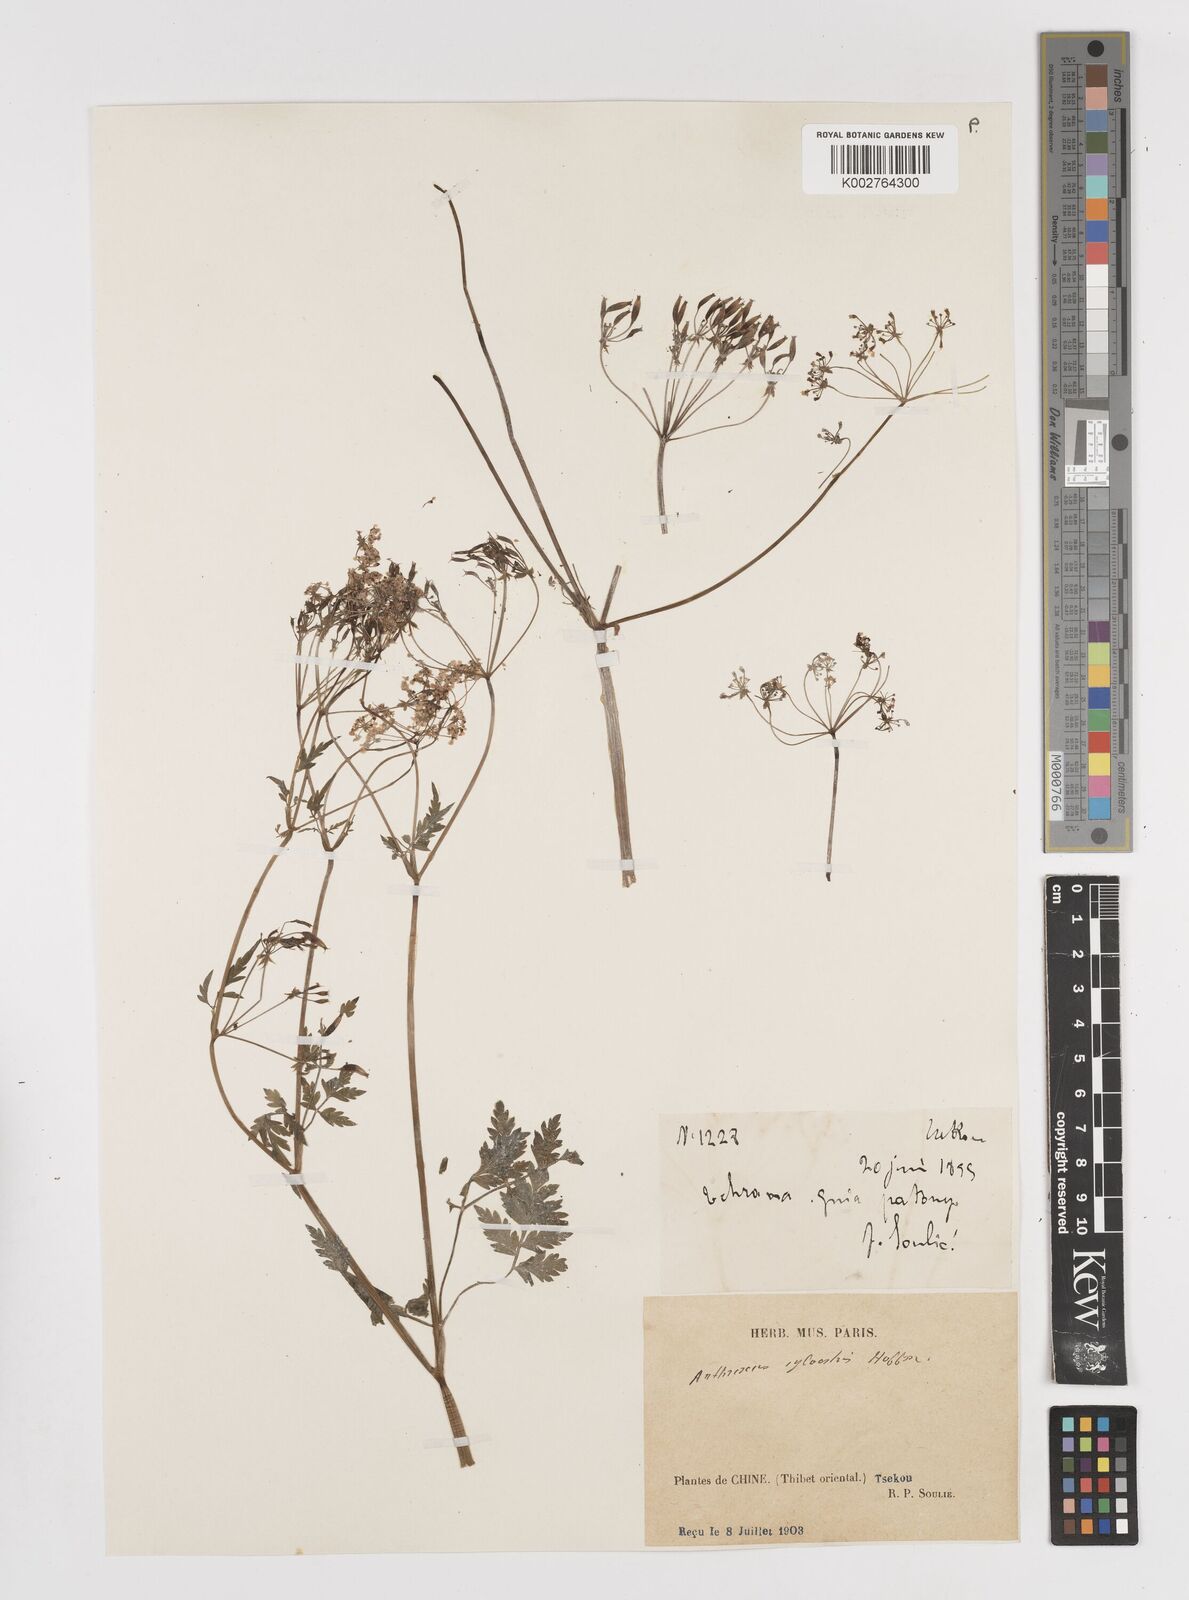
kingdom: Plantae
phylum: Tracheophyta
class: Magnoliopsida
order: Apiales
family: Apiaceae
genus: Anthriscus
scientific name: Anthriscus sylvestris
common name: Cow parsley
